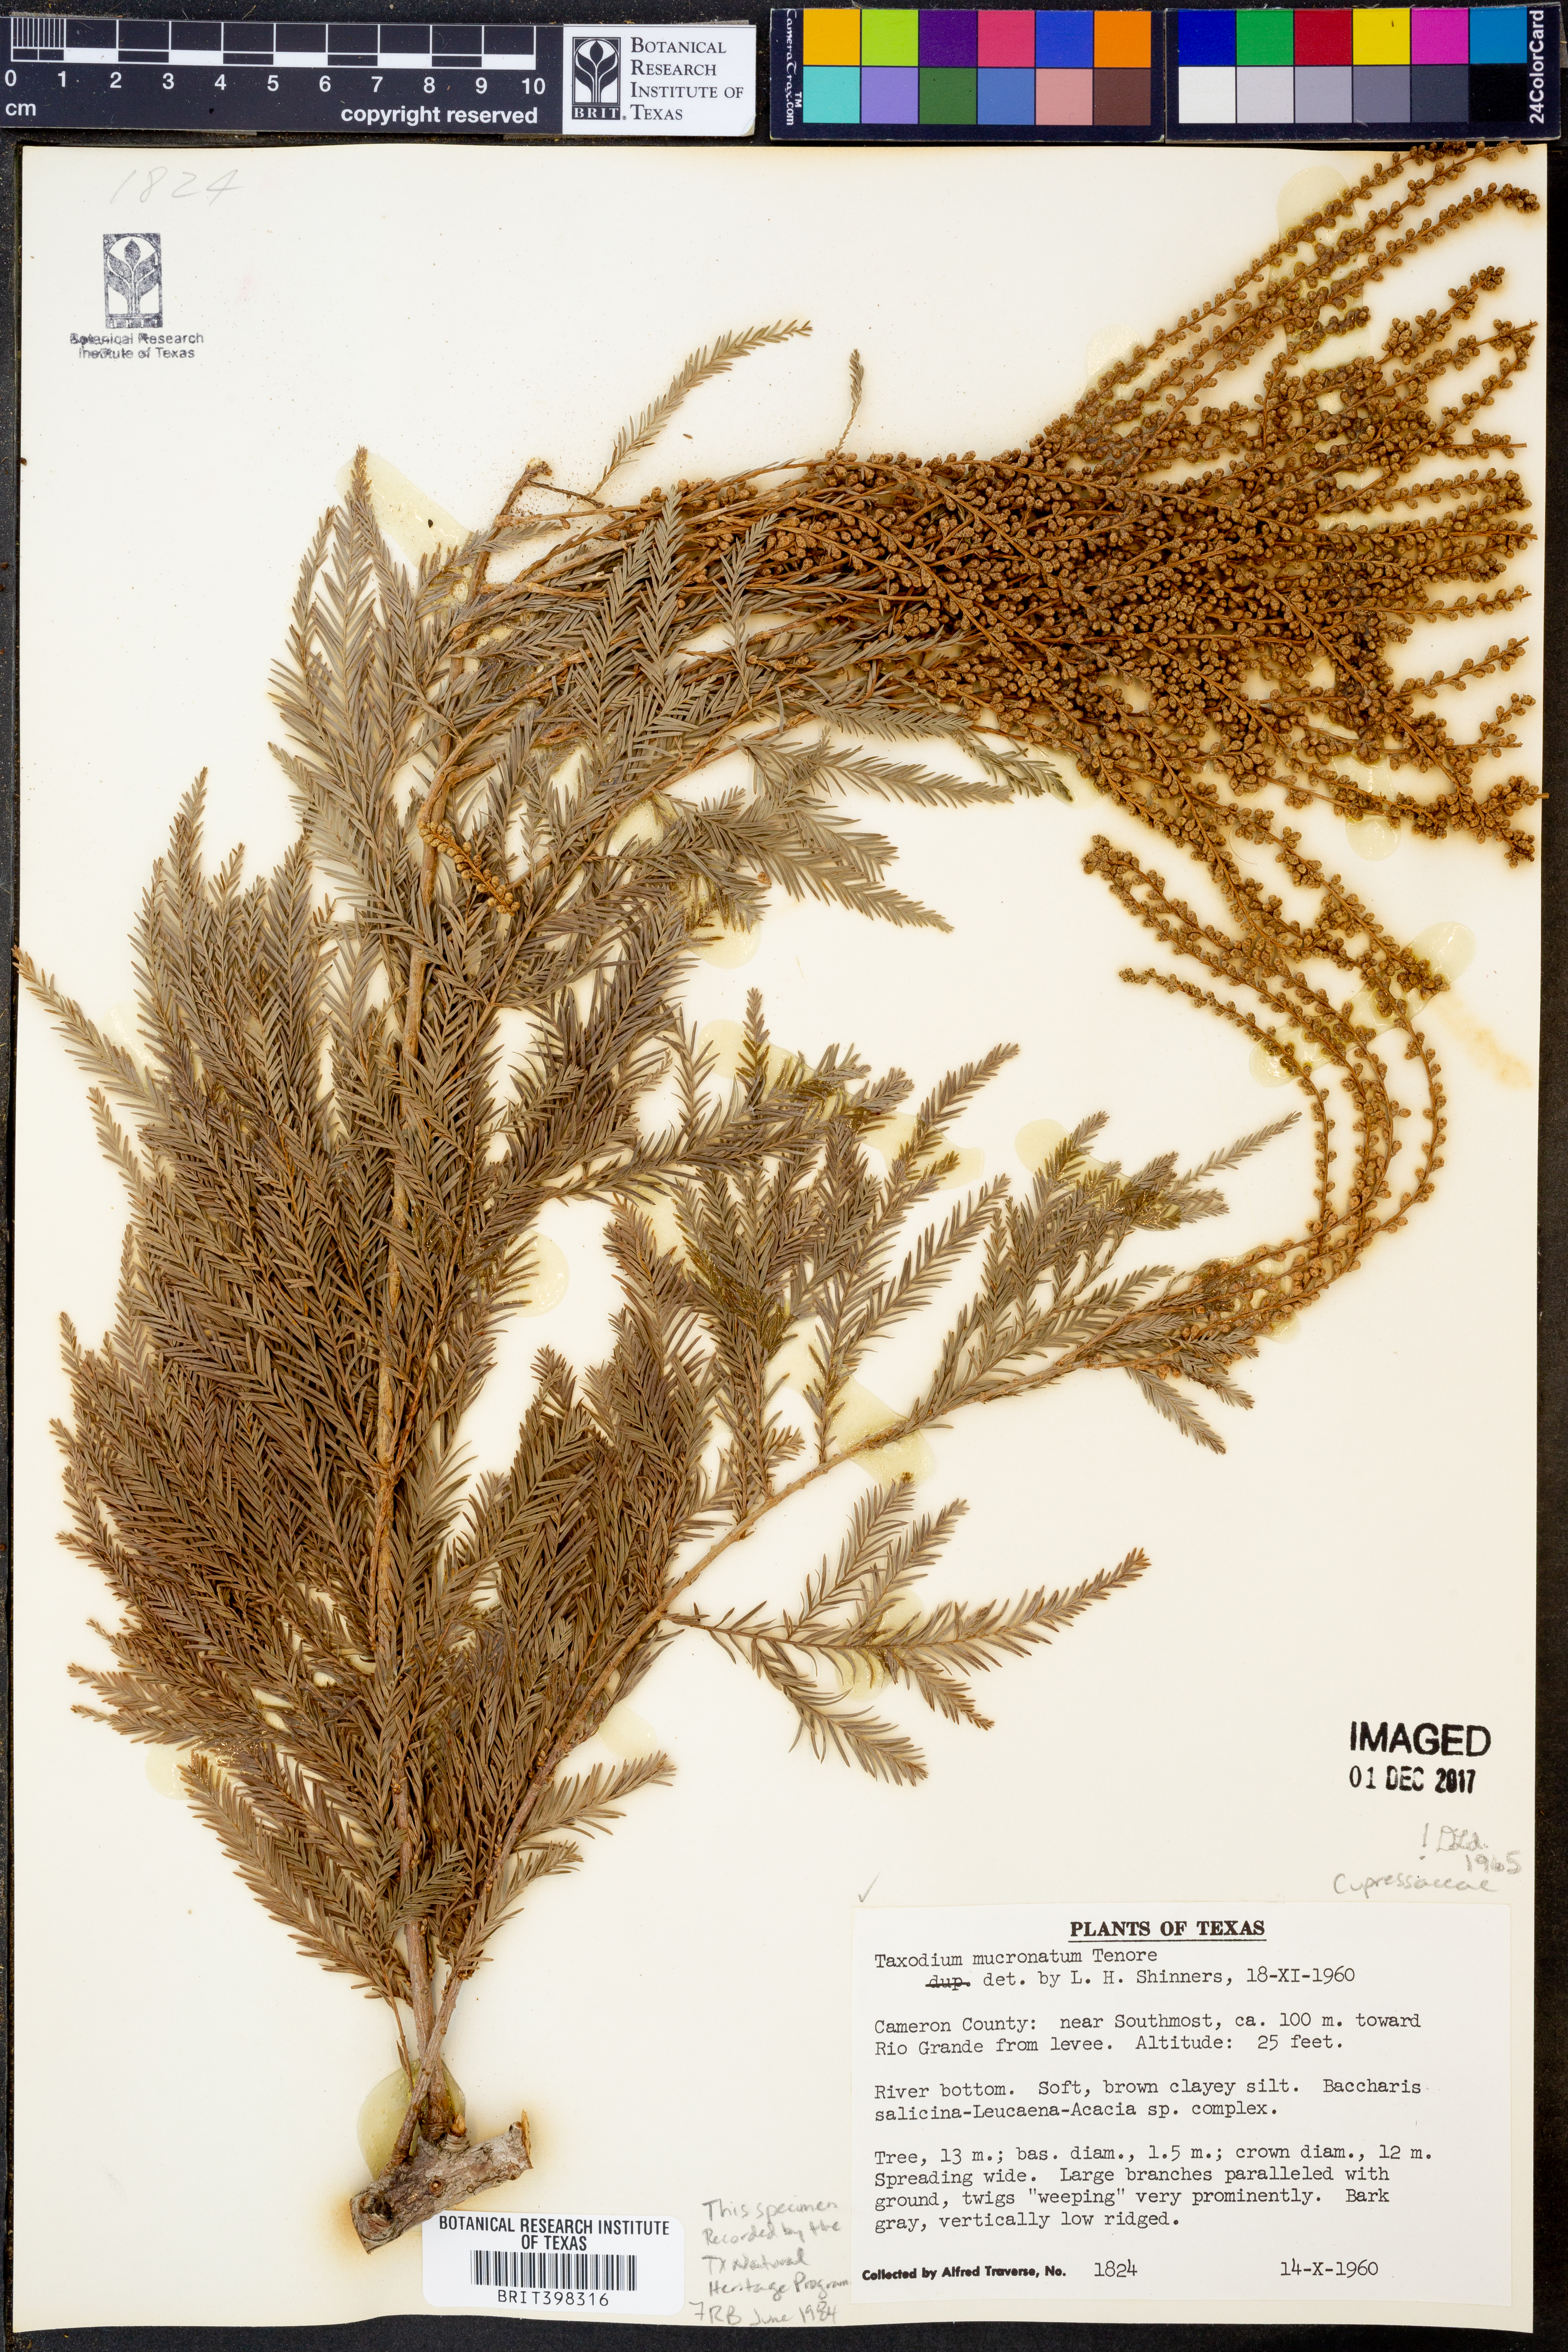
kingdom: Plantae
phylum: Tracheophyta
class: Pinopsida
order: Pinales
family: Cupressaceae
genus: Taxodium
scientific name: Taxodium mucronatum
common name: Montezume bald cypress
